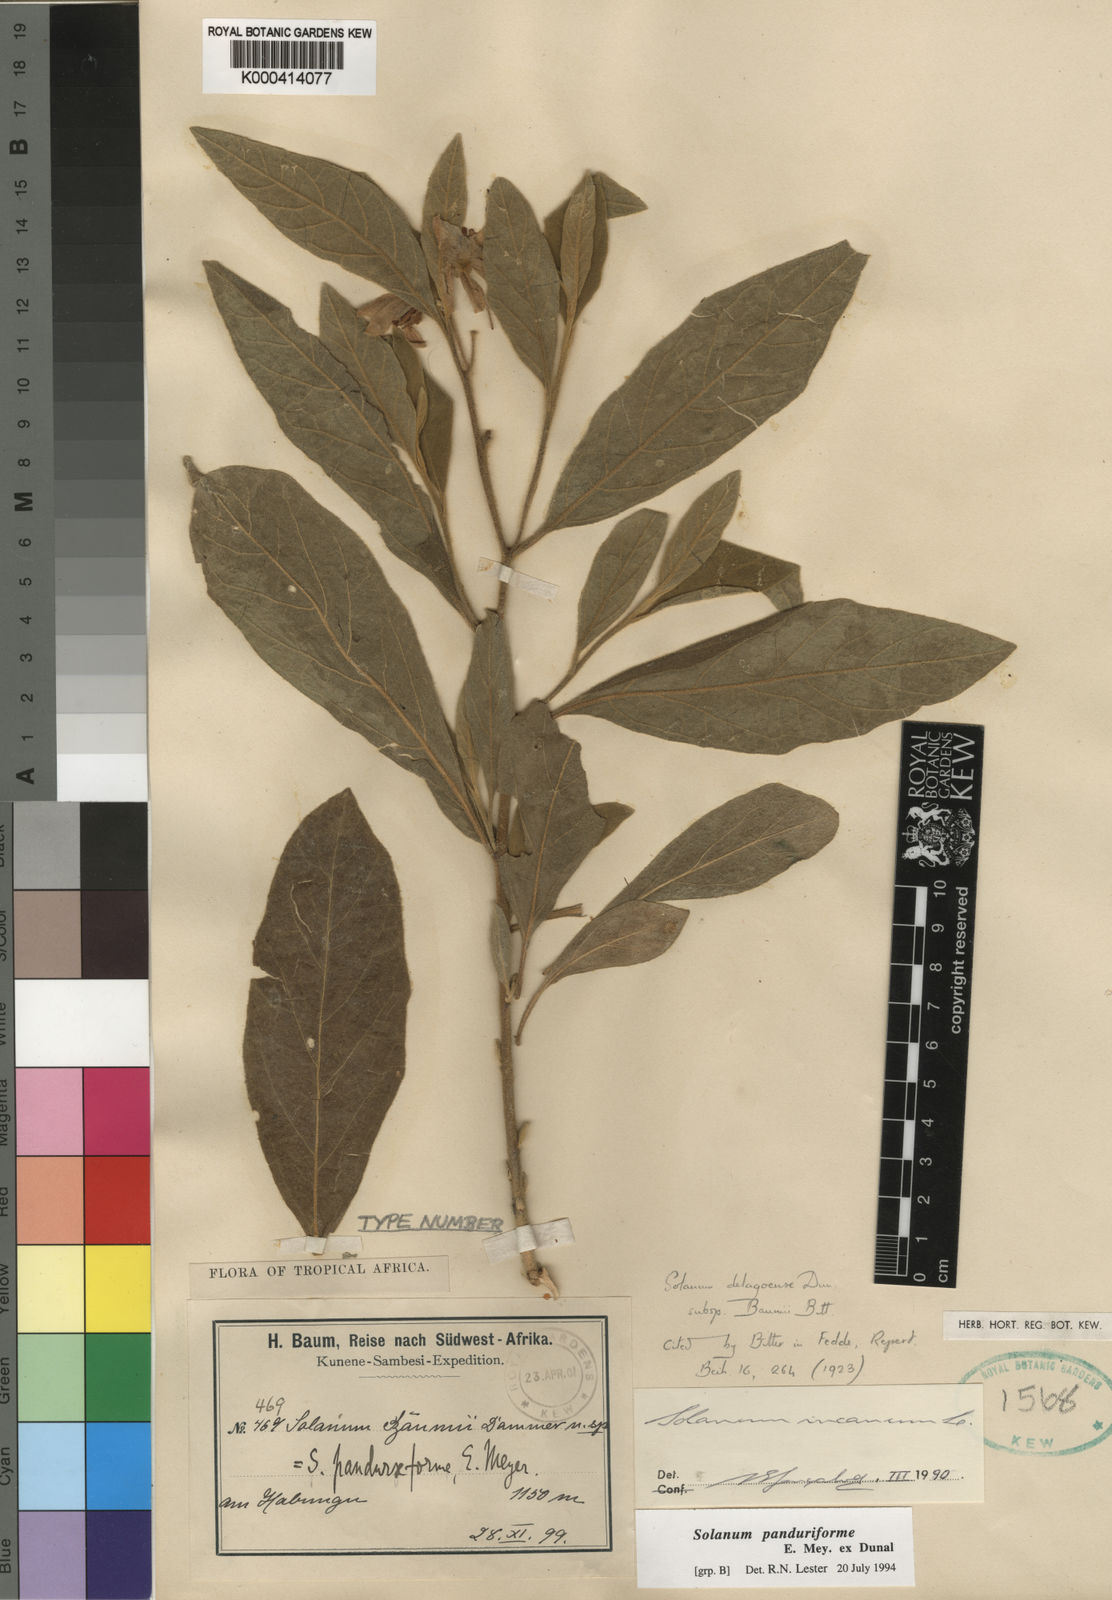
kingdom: Plantae
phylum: Tracheophyta
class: Magnoliopsida
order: Solanales
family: Solanaceae
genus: Solanum
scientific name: Solanum incanum
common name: Bitter apple
